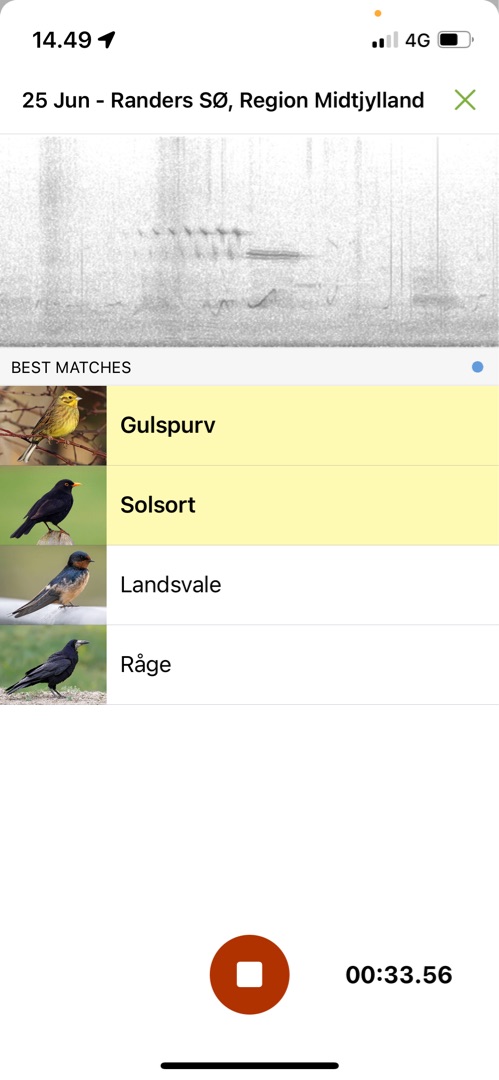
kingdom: Animalia
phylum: Chordata
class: Aves
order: Passeriformes
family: Emberizidae
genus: Emberiza
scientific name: Emberiza citrinella
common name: Gulspurv
